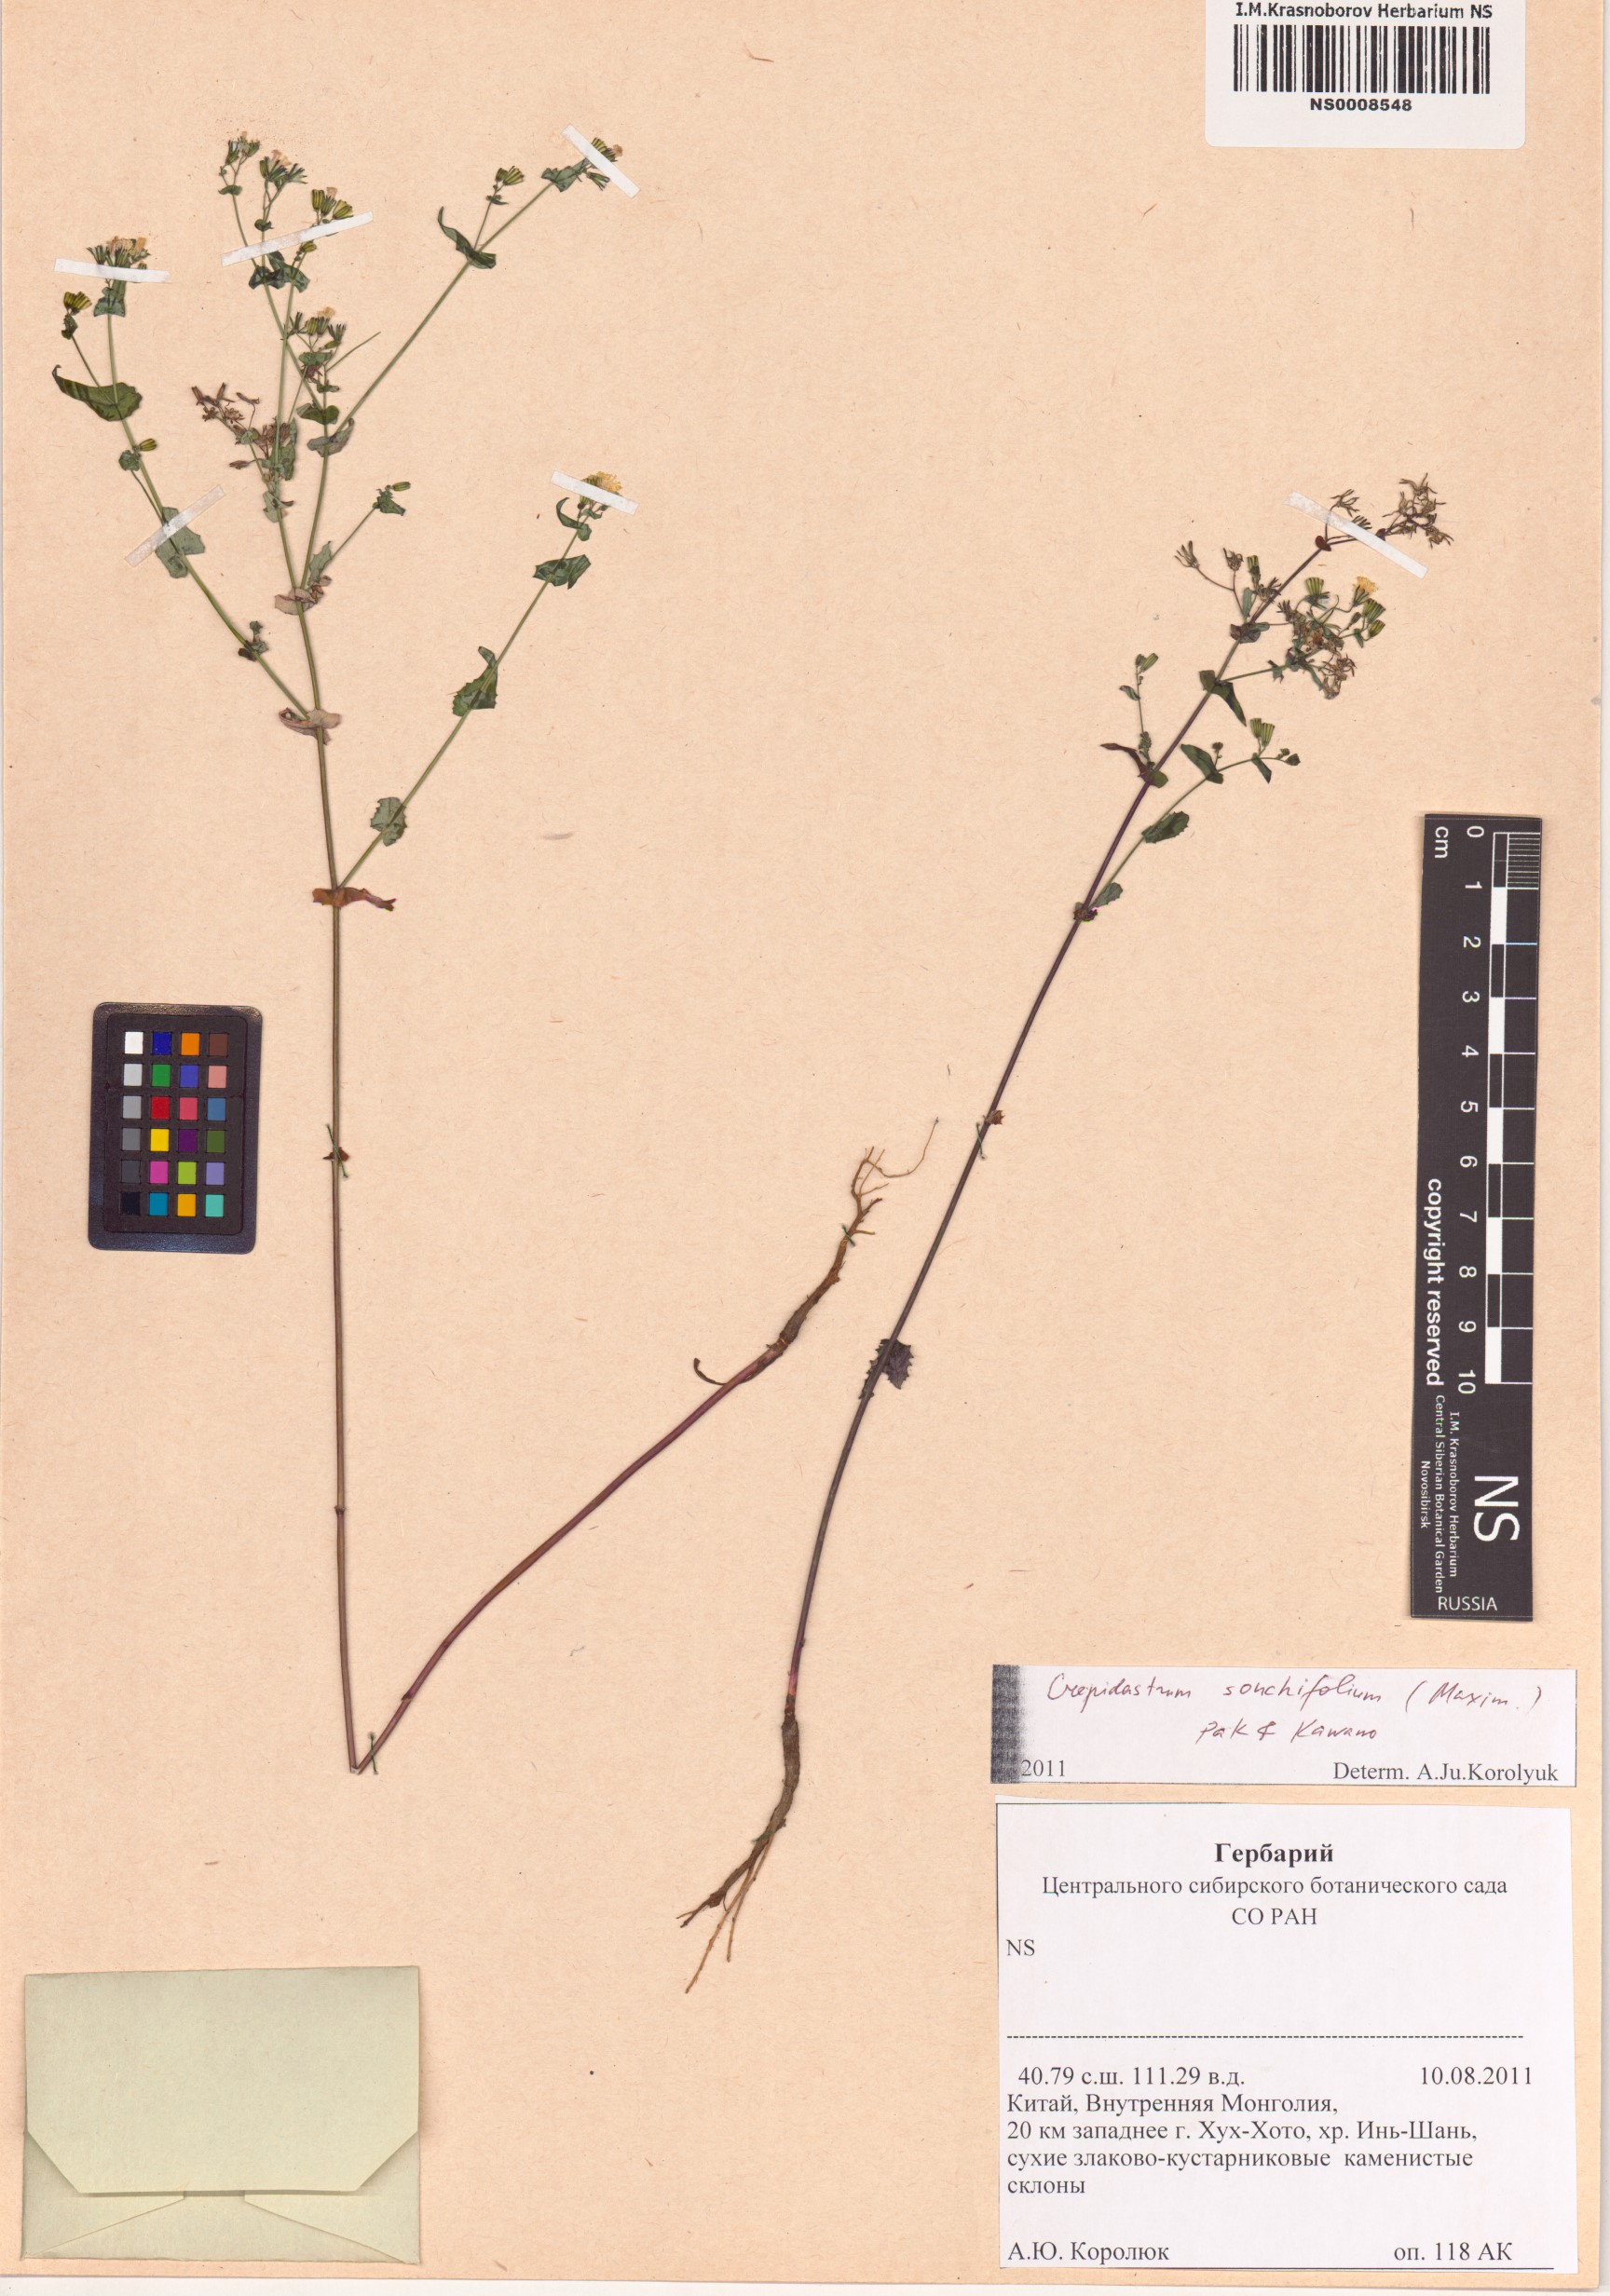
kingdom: Plantae
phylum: Tracheophyta
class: Magnoliopsida
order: Asterales
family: Asteraceae
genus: Crepidiastrum
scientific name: Crepidiastrum sonchifolium
